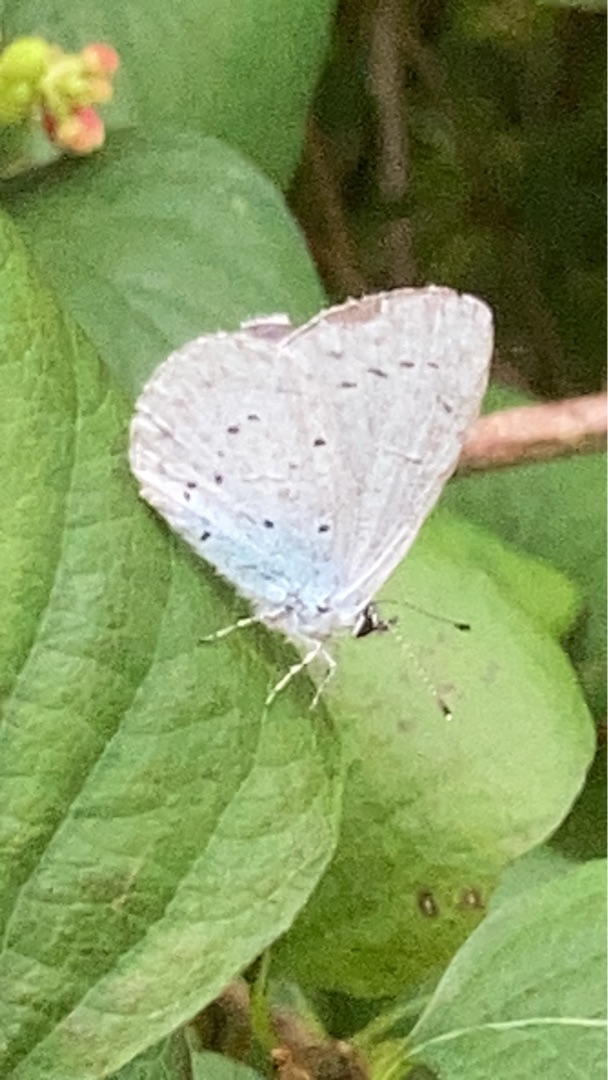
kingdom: Animalia
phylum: Arthropoda
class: Insecta
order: Lepidoptera
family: Lycaenidae
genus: Celastrina
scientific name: Celastrina argiolus
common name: Skovblåfugl
